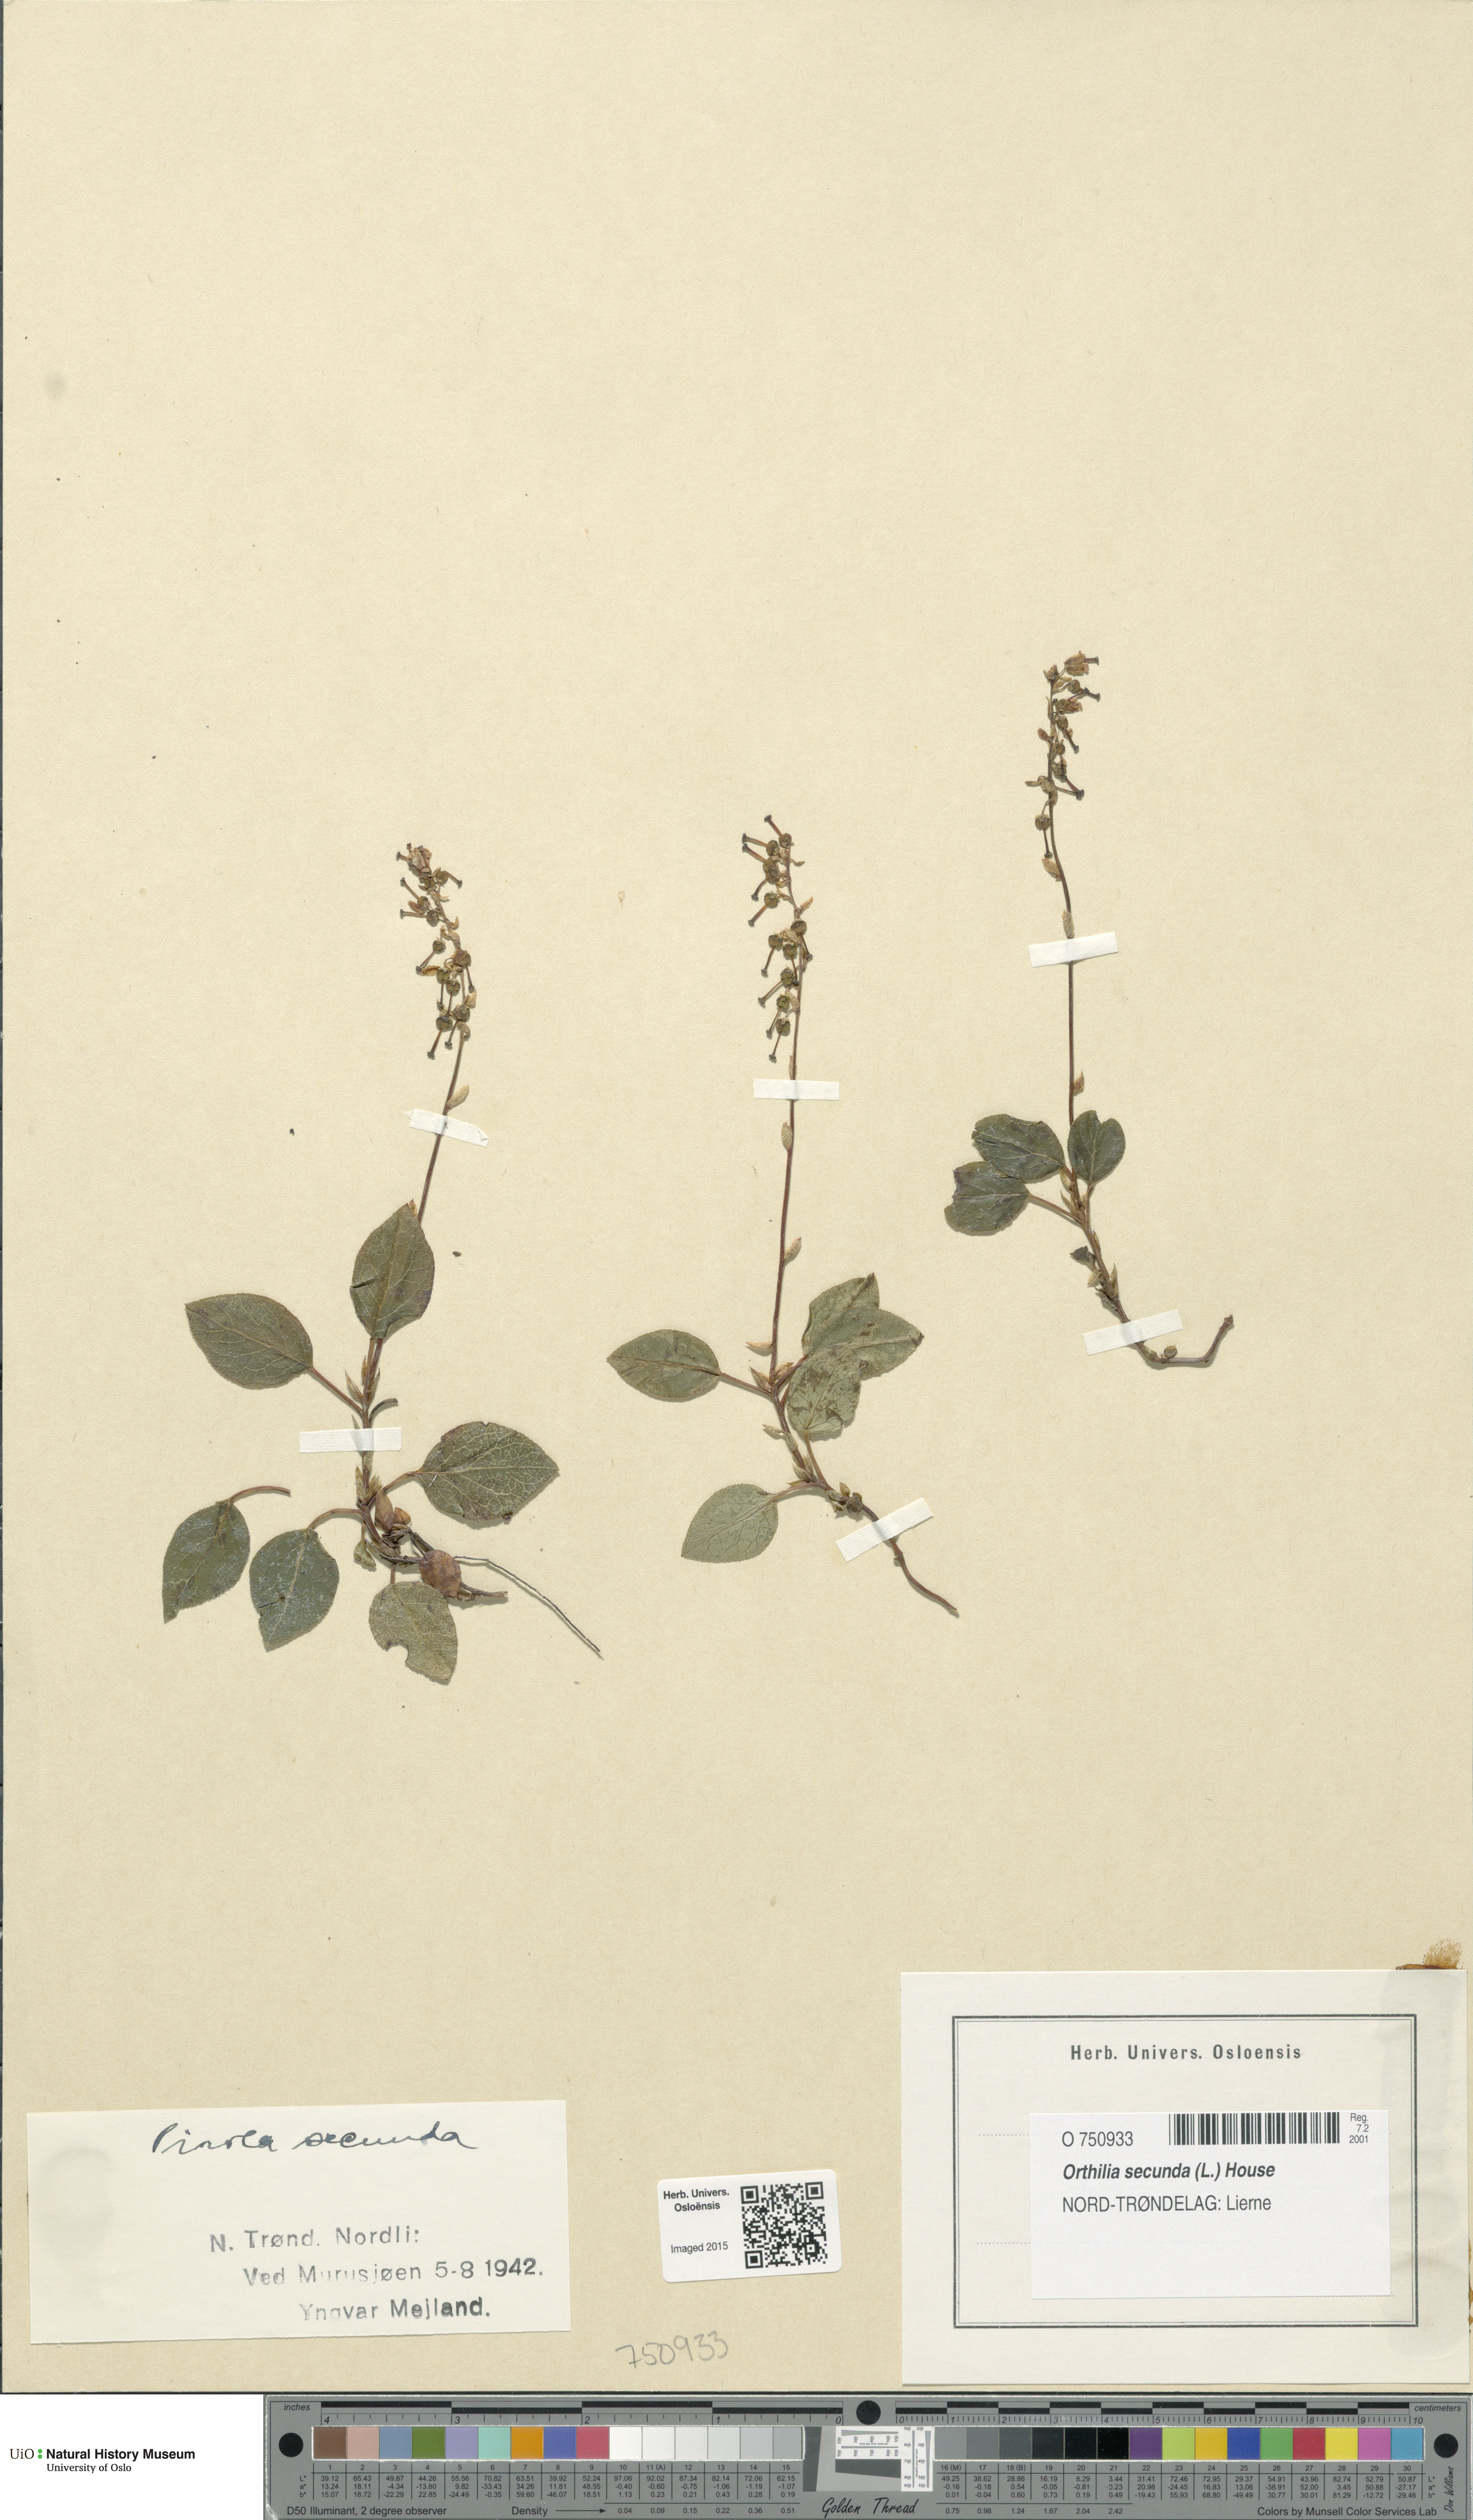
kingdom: Plantae
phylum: Tracheophyta
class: Magnoliopsida
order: Ericales
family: Ericaceae
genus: Orthilia
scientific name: Orthilia secunda
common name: One-sided orthilia
